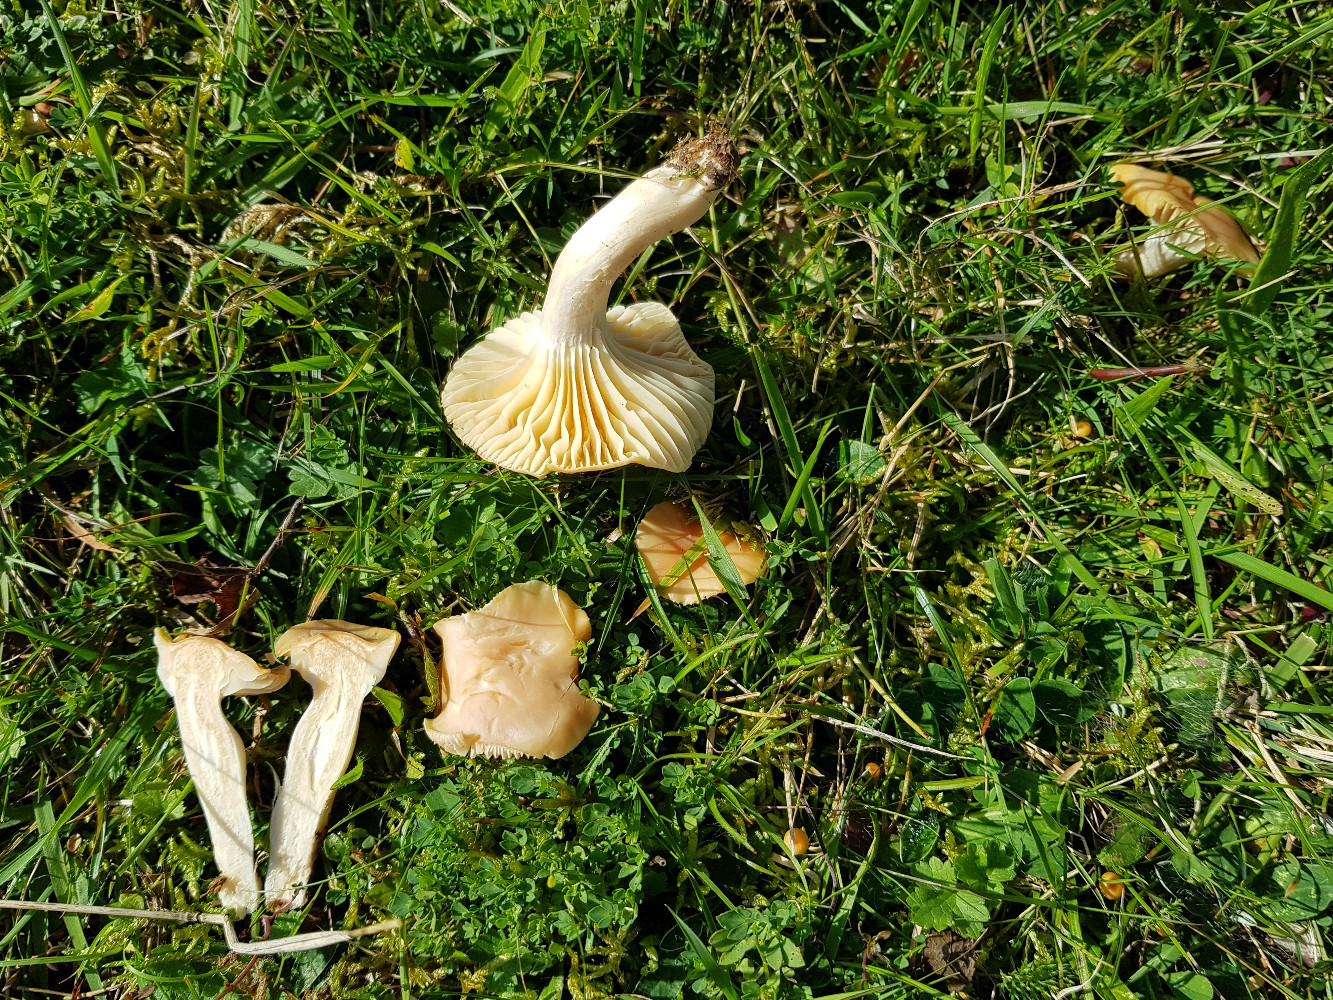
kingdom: Fungi
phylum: Basidiomycota
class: Agaricomycetes
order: Agaricales
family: Hygrophoraceae
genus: Cuphophyllus
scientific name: Cuphophyllus pratensis
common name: eng-vokshat
